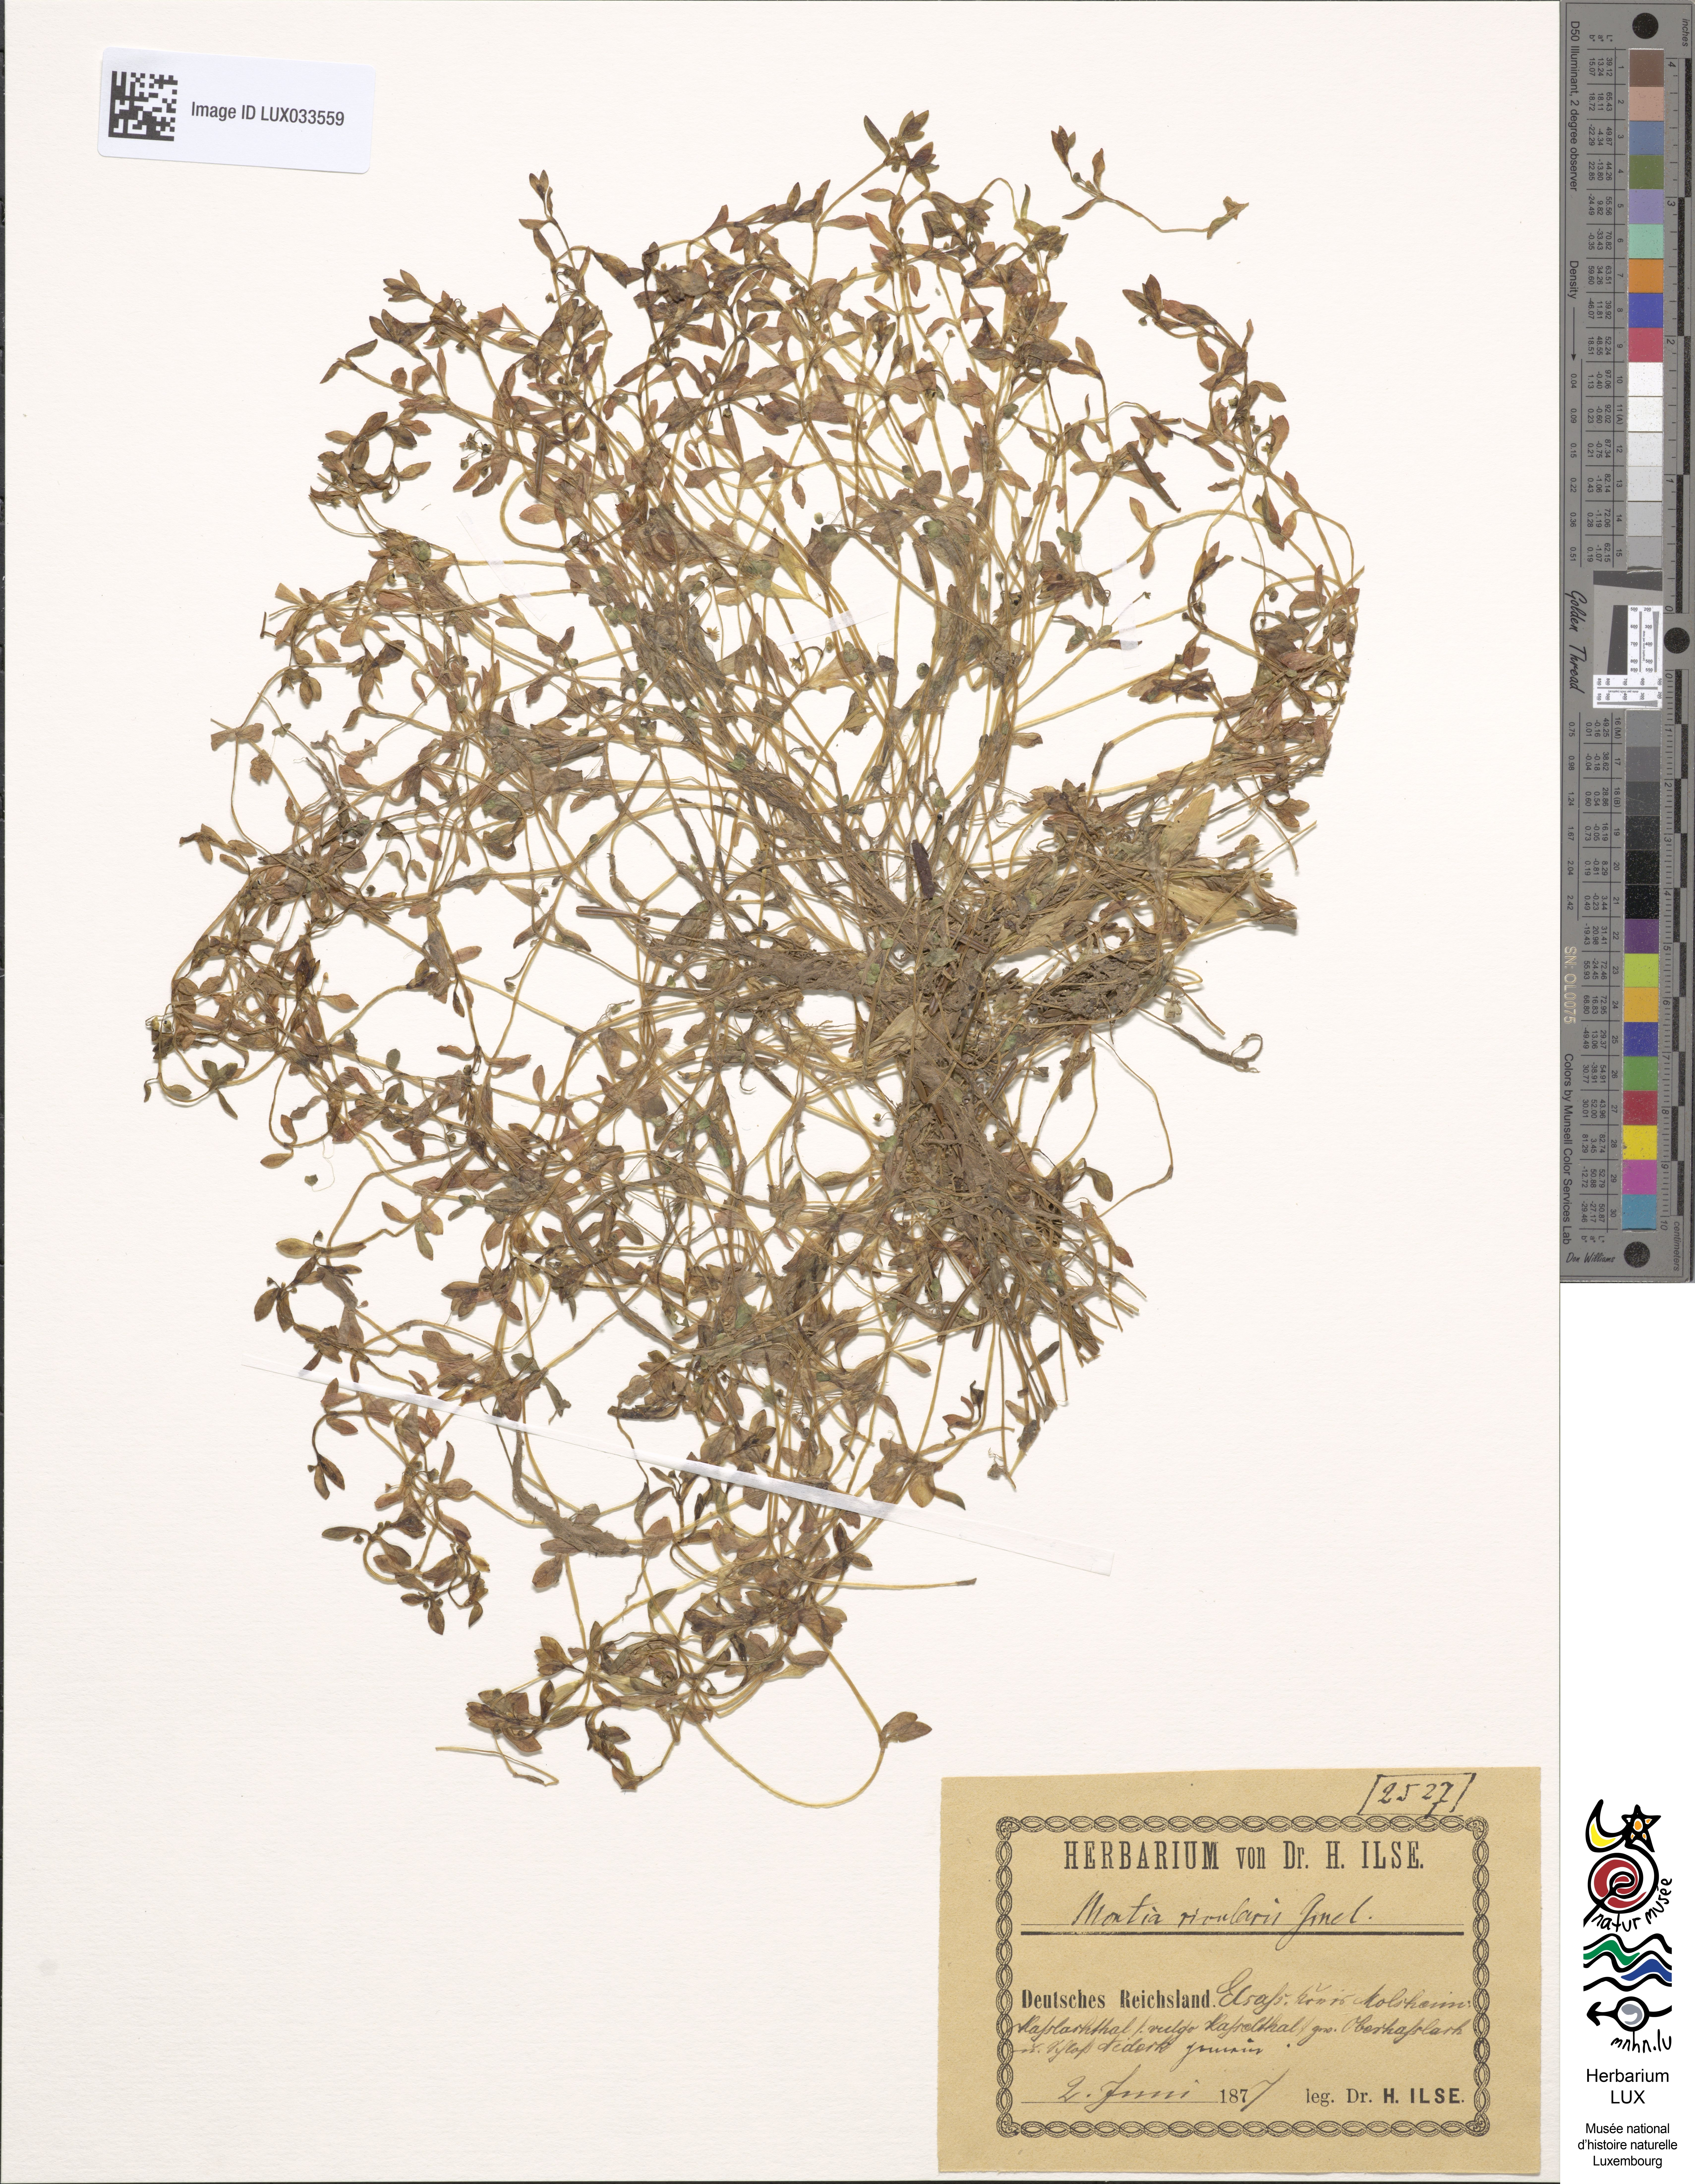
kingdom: Plantae
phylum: Tracheophyta
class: Magnoliopsida
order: Caryophyllales
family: Montiaceae
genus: Montia
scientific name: Montia fontana
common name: Blinks
